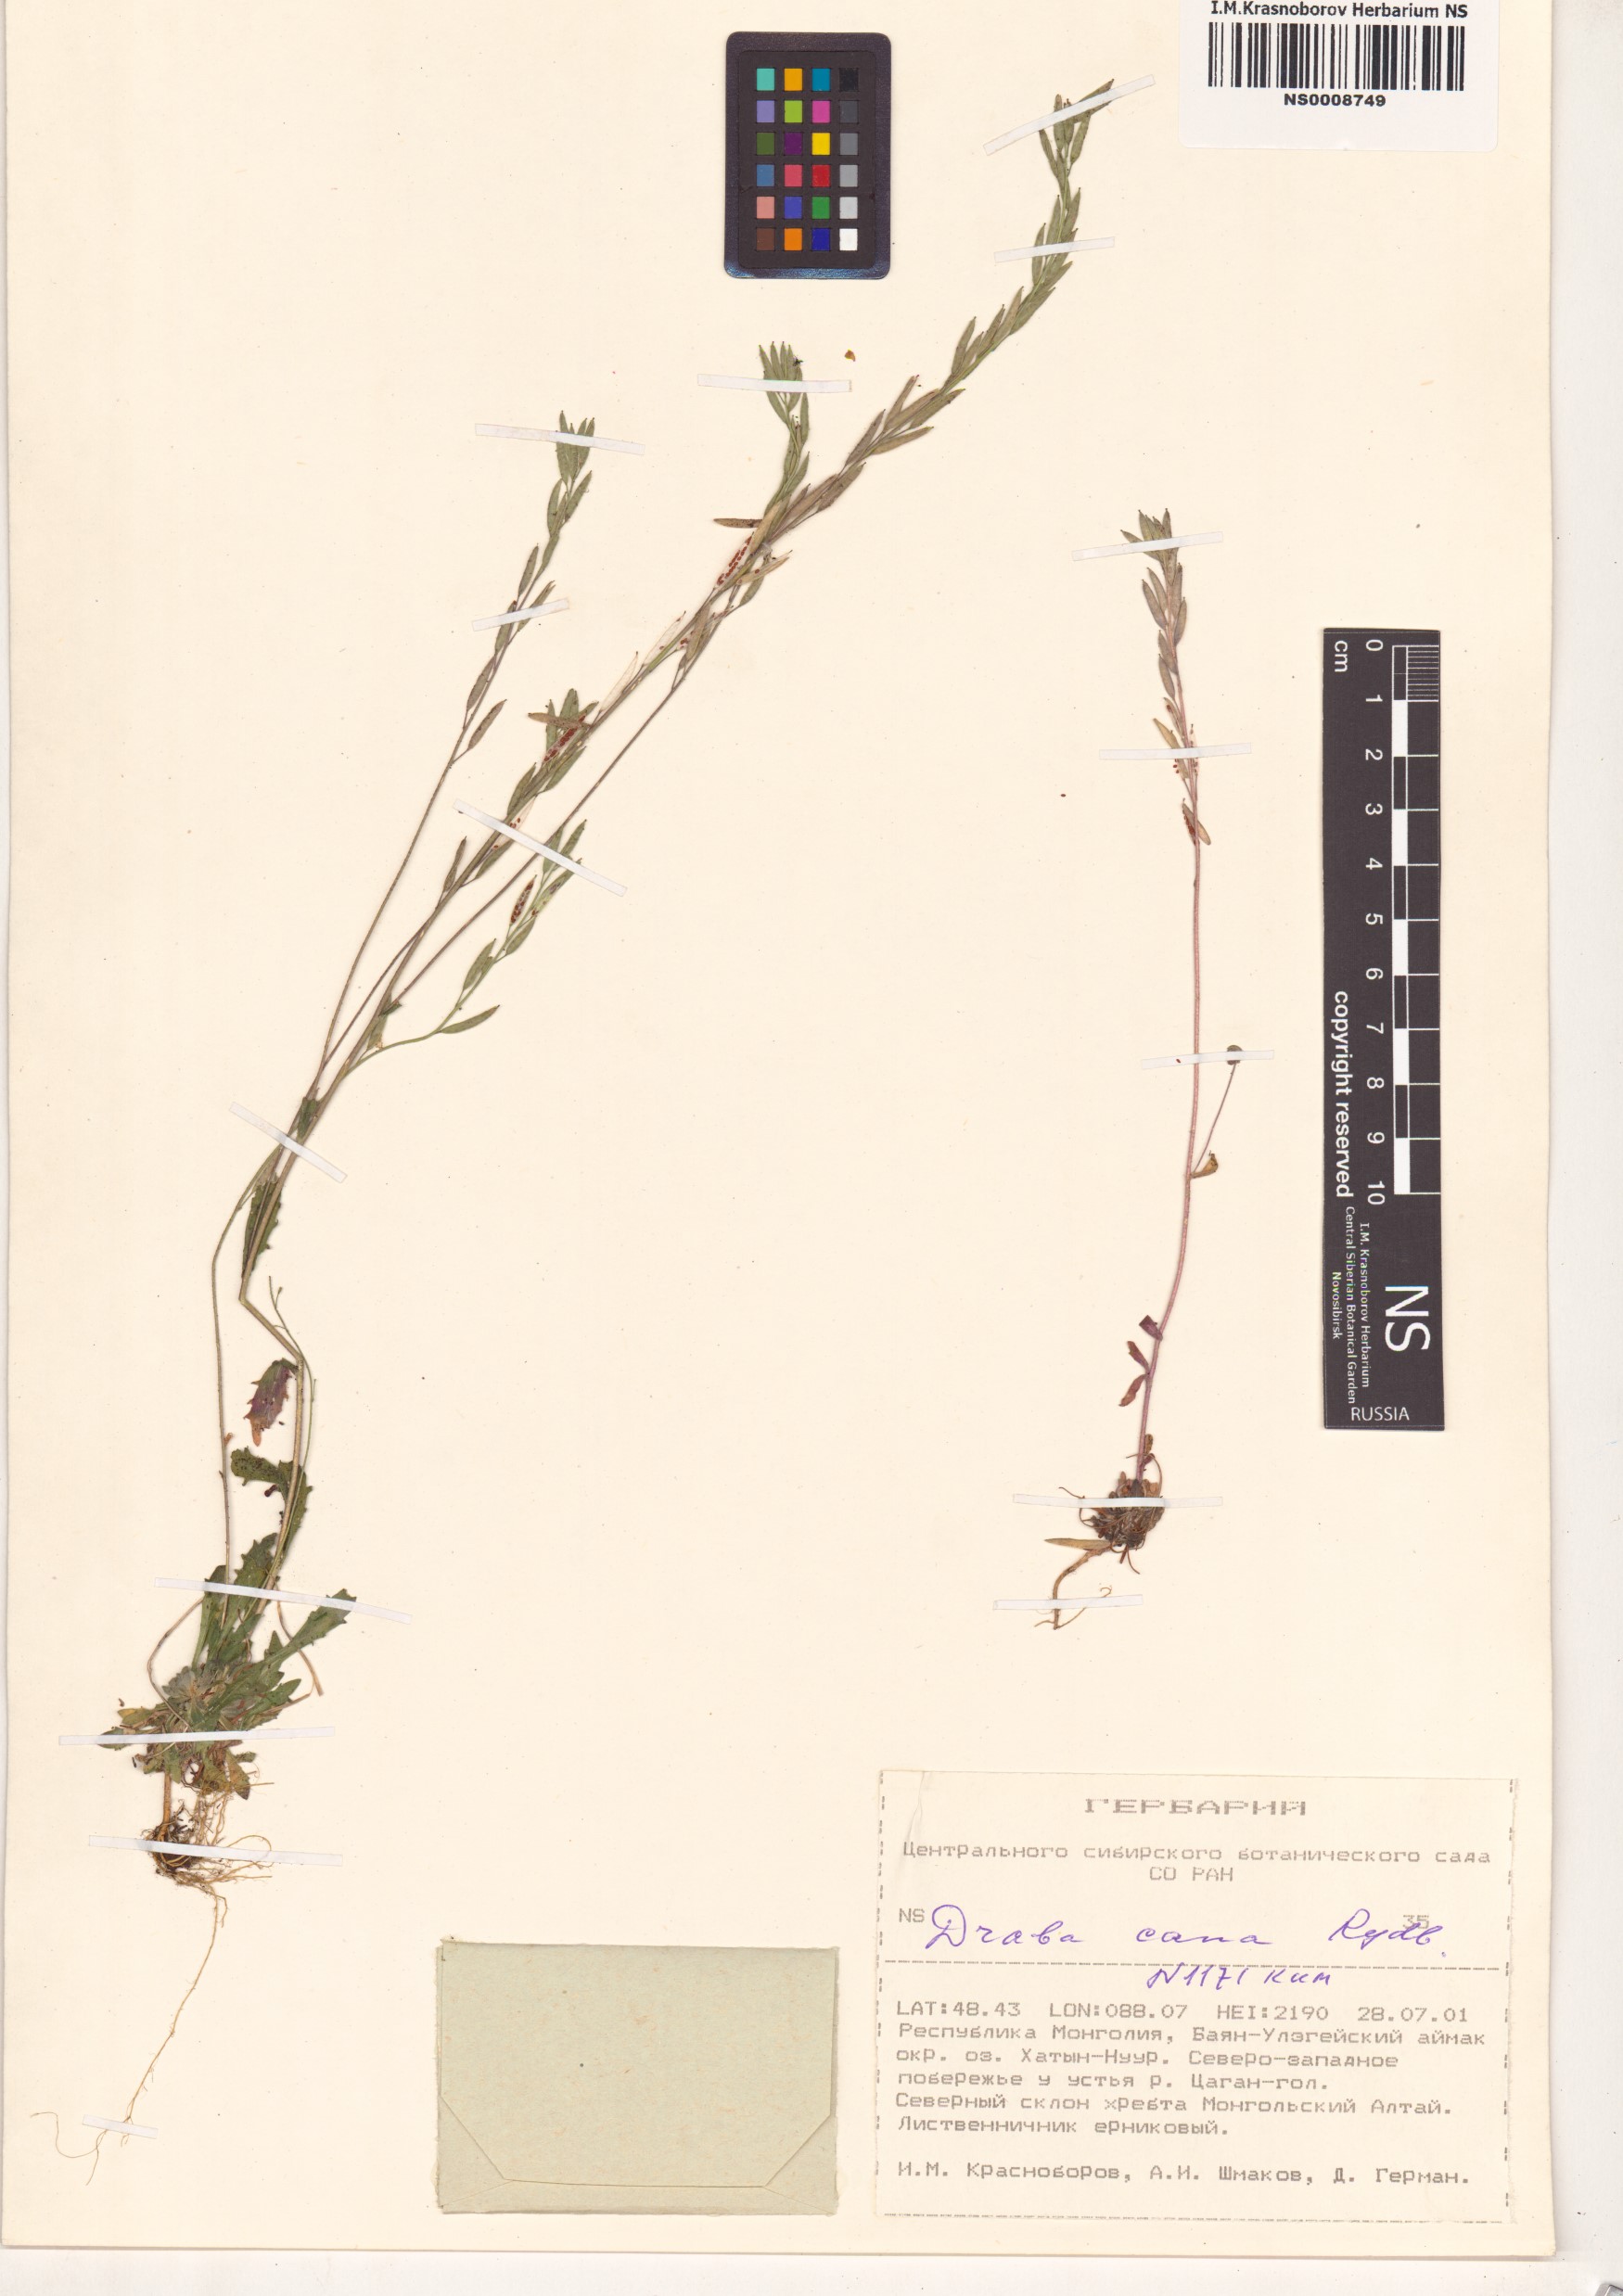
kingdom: Plantae
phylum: Tracheophyta
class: Magnoliopsida
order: Brassicales
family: Brassicaceae
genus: Draba
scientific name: Draba cana
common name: Hoary draba
